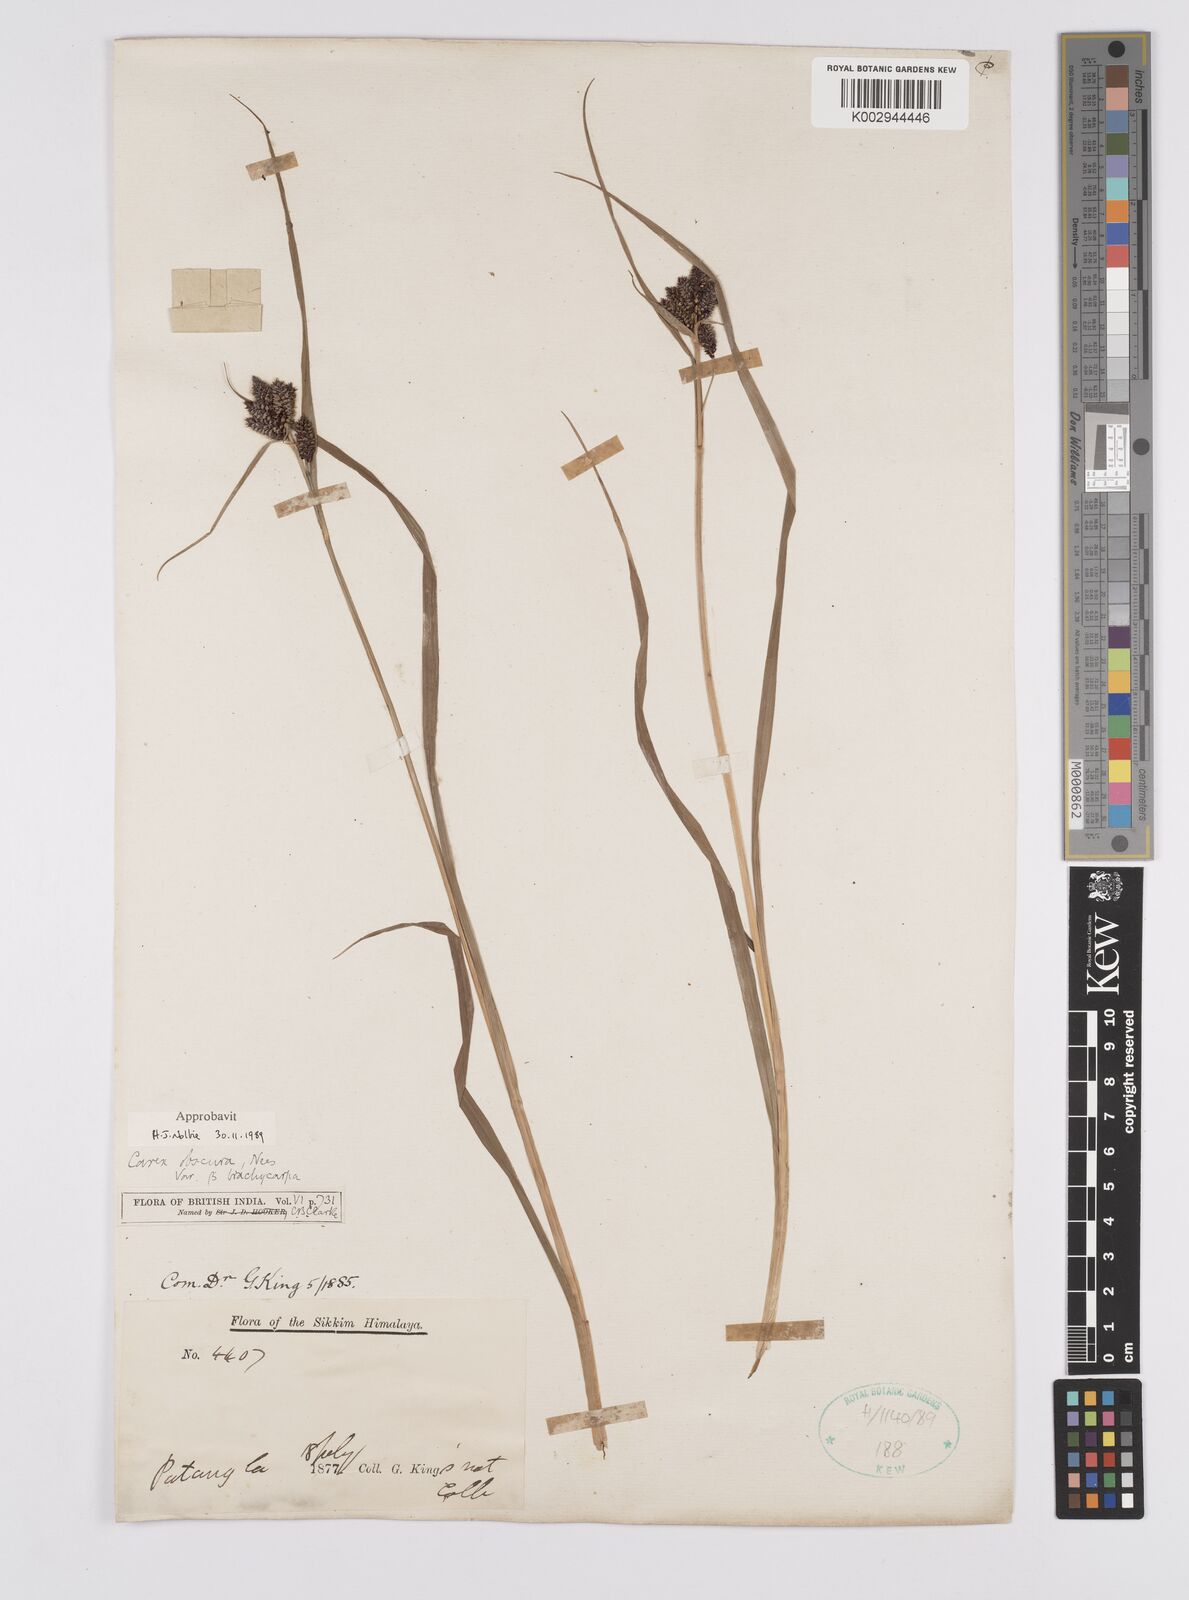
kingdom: Plantae
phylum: Tracheophyta
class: Liliopsida
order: Poales
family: Cyperaceae
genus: Carex
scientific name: Carex obscura
